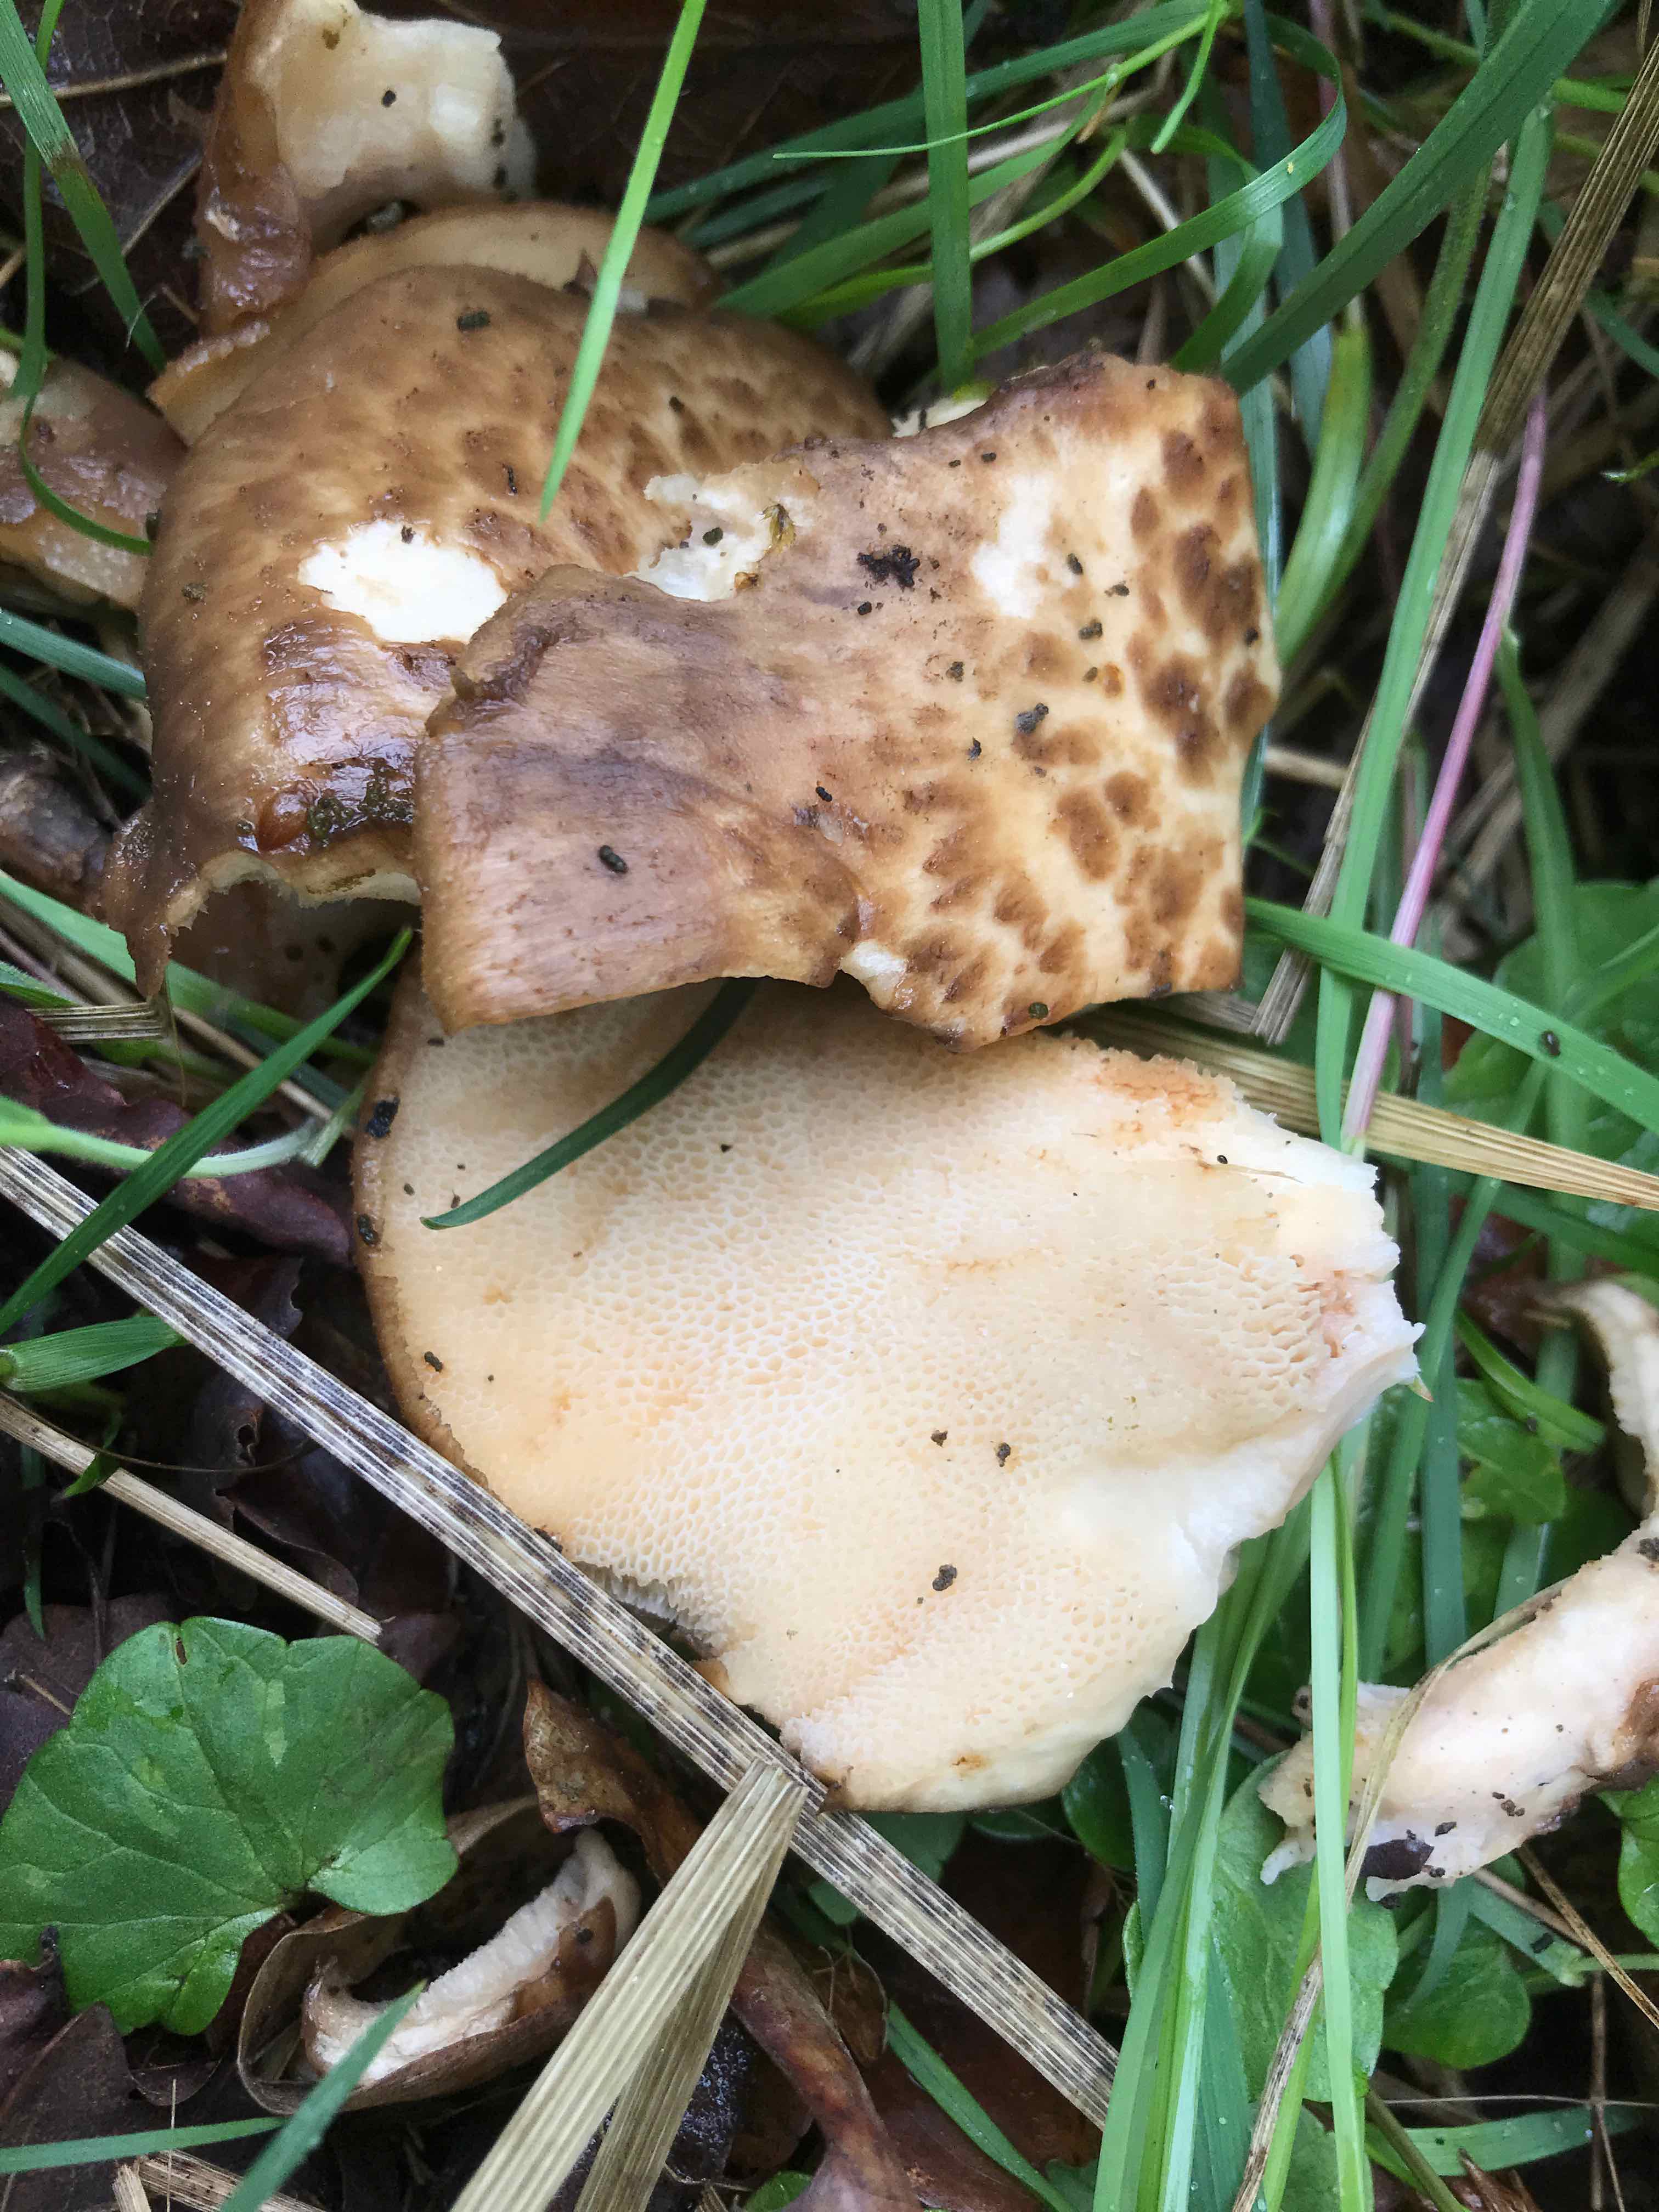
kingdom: Fungi
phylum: Basidiomycota
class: Agaricomycetes
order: Polyporales
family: Polyporaceae
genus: Polyporus
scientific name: Polyporus tuberaster
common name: knoldet stilkporesvamp
